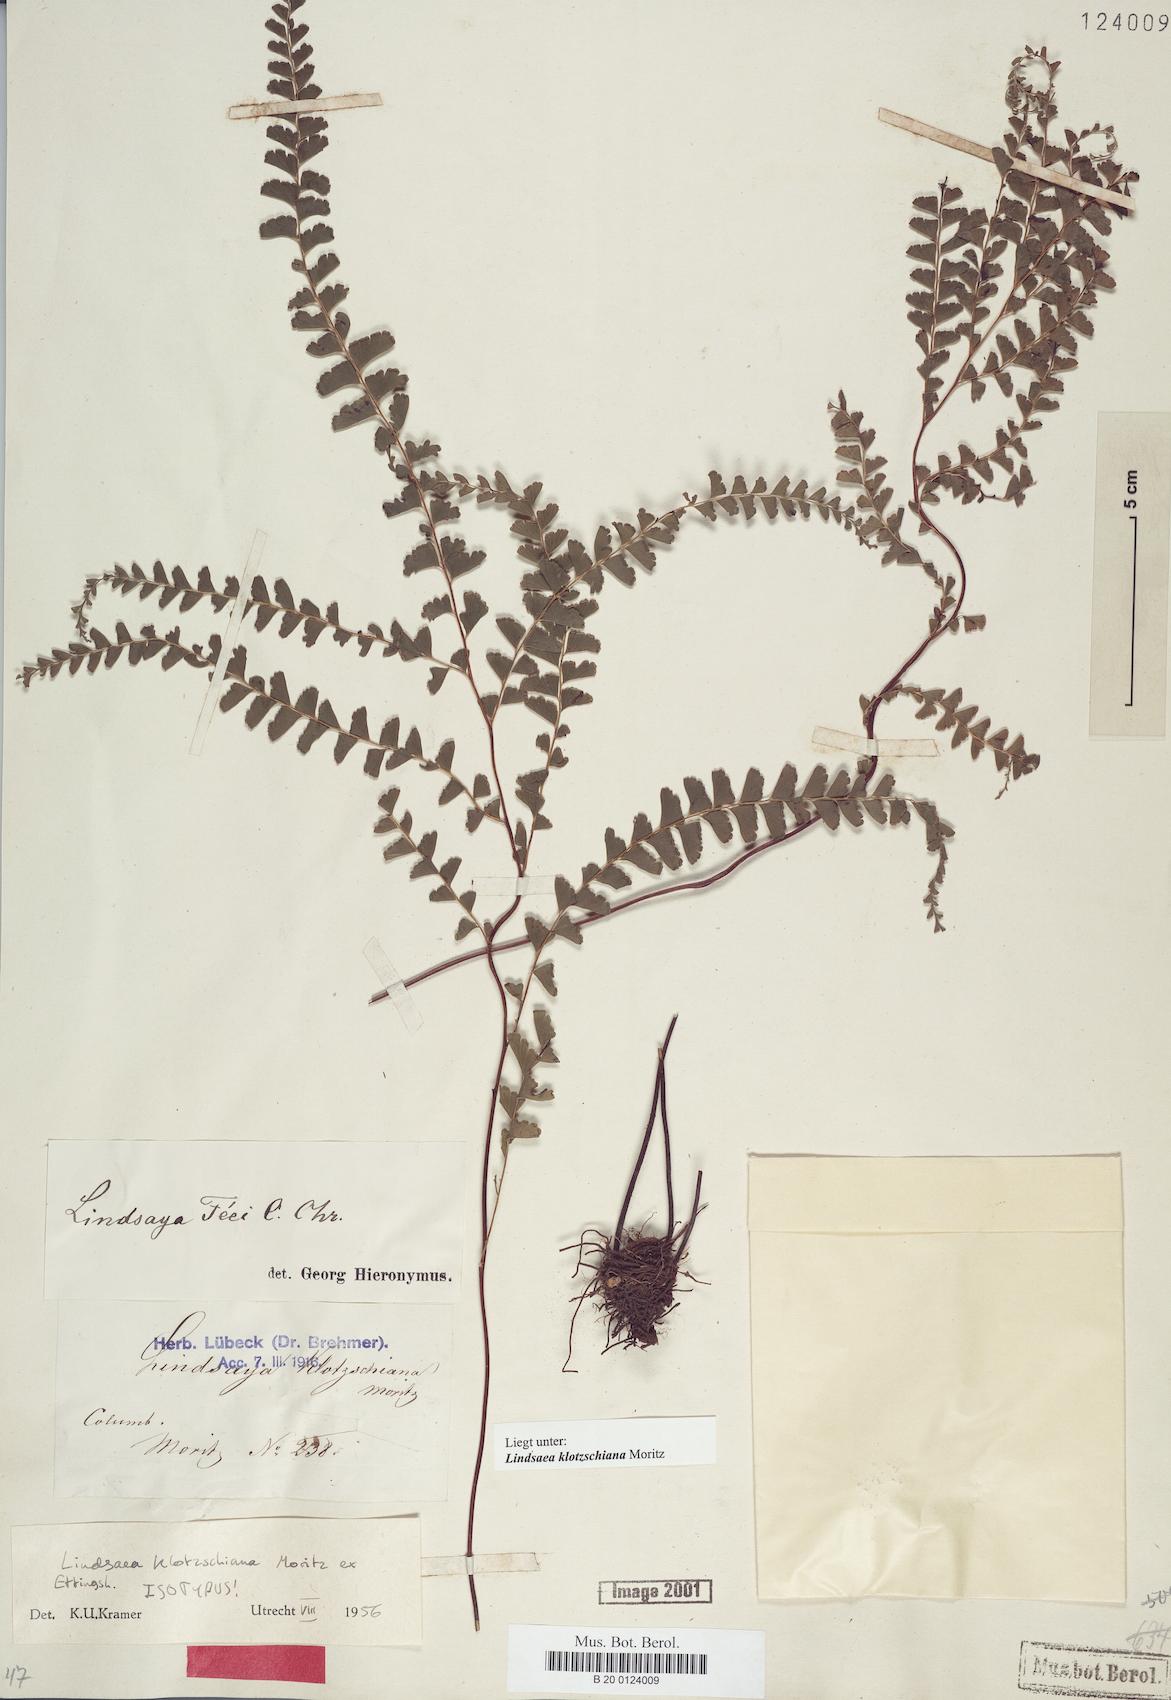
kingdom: Plantae
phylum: Tracheophyta
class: Polypodiopsida
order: Polypodiales
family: Lindsaeaceae
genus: Lindsaea
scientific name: Lindsaea feei
